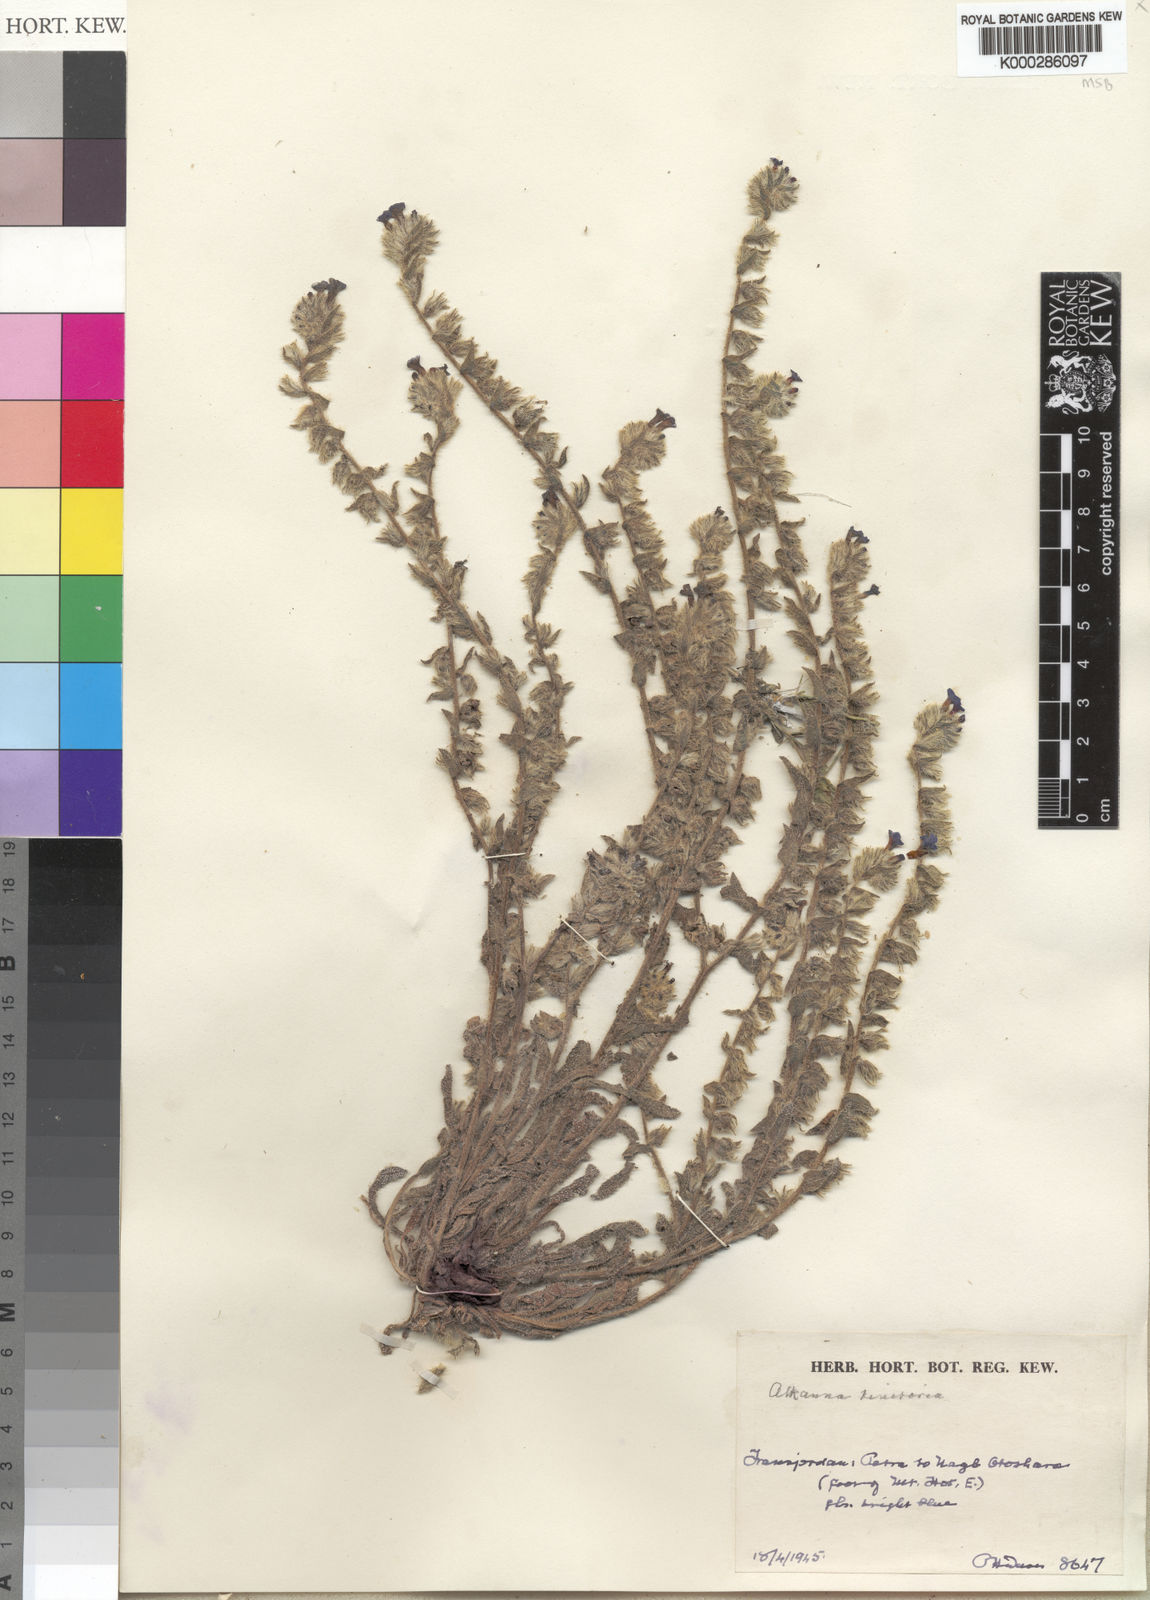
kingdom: Plantae
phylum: Tracheophyta
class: Magnoliopsida
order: Boraginales
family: Boraginaceae
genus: Alkanna
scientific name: Alkanna tinctoria
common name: Dyer's-alkanet
